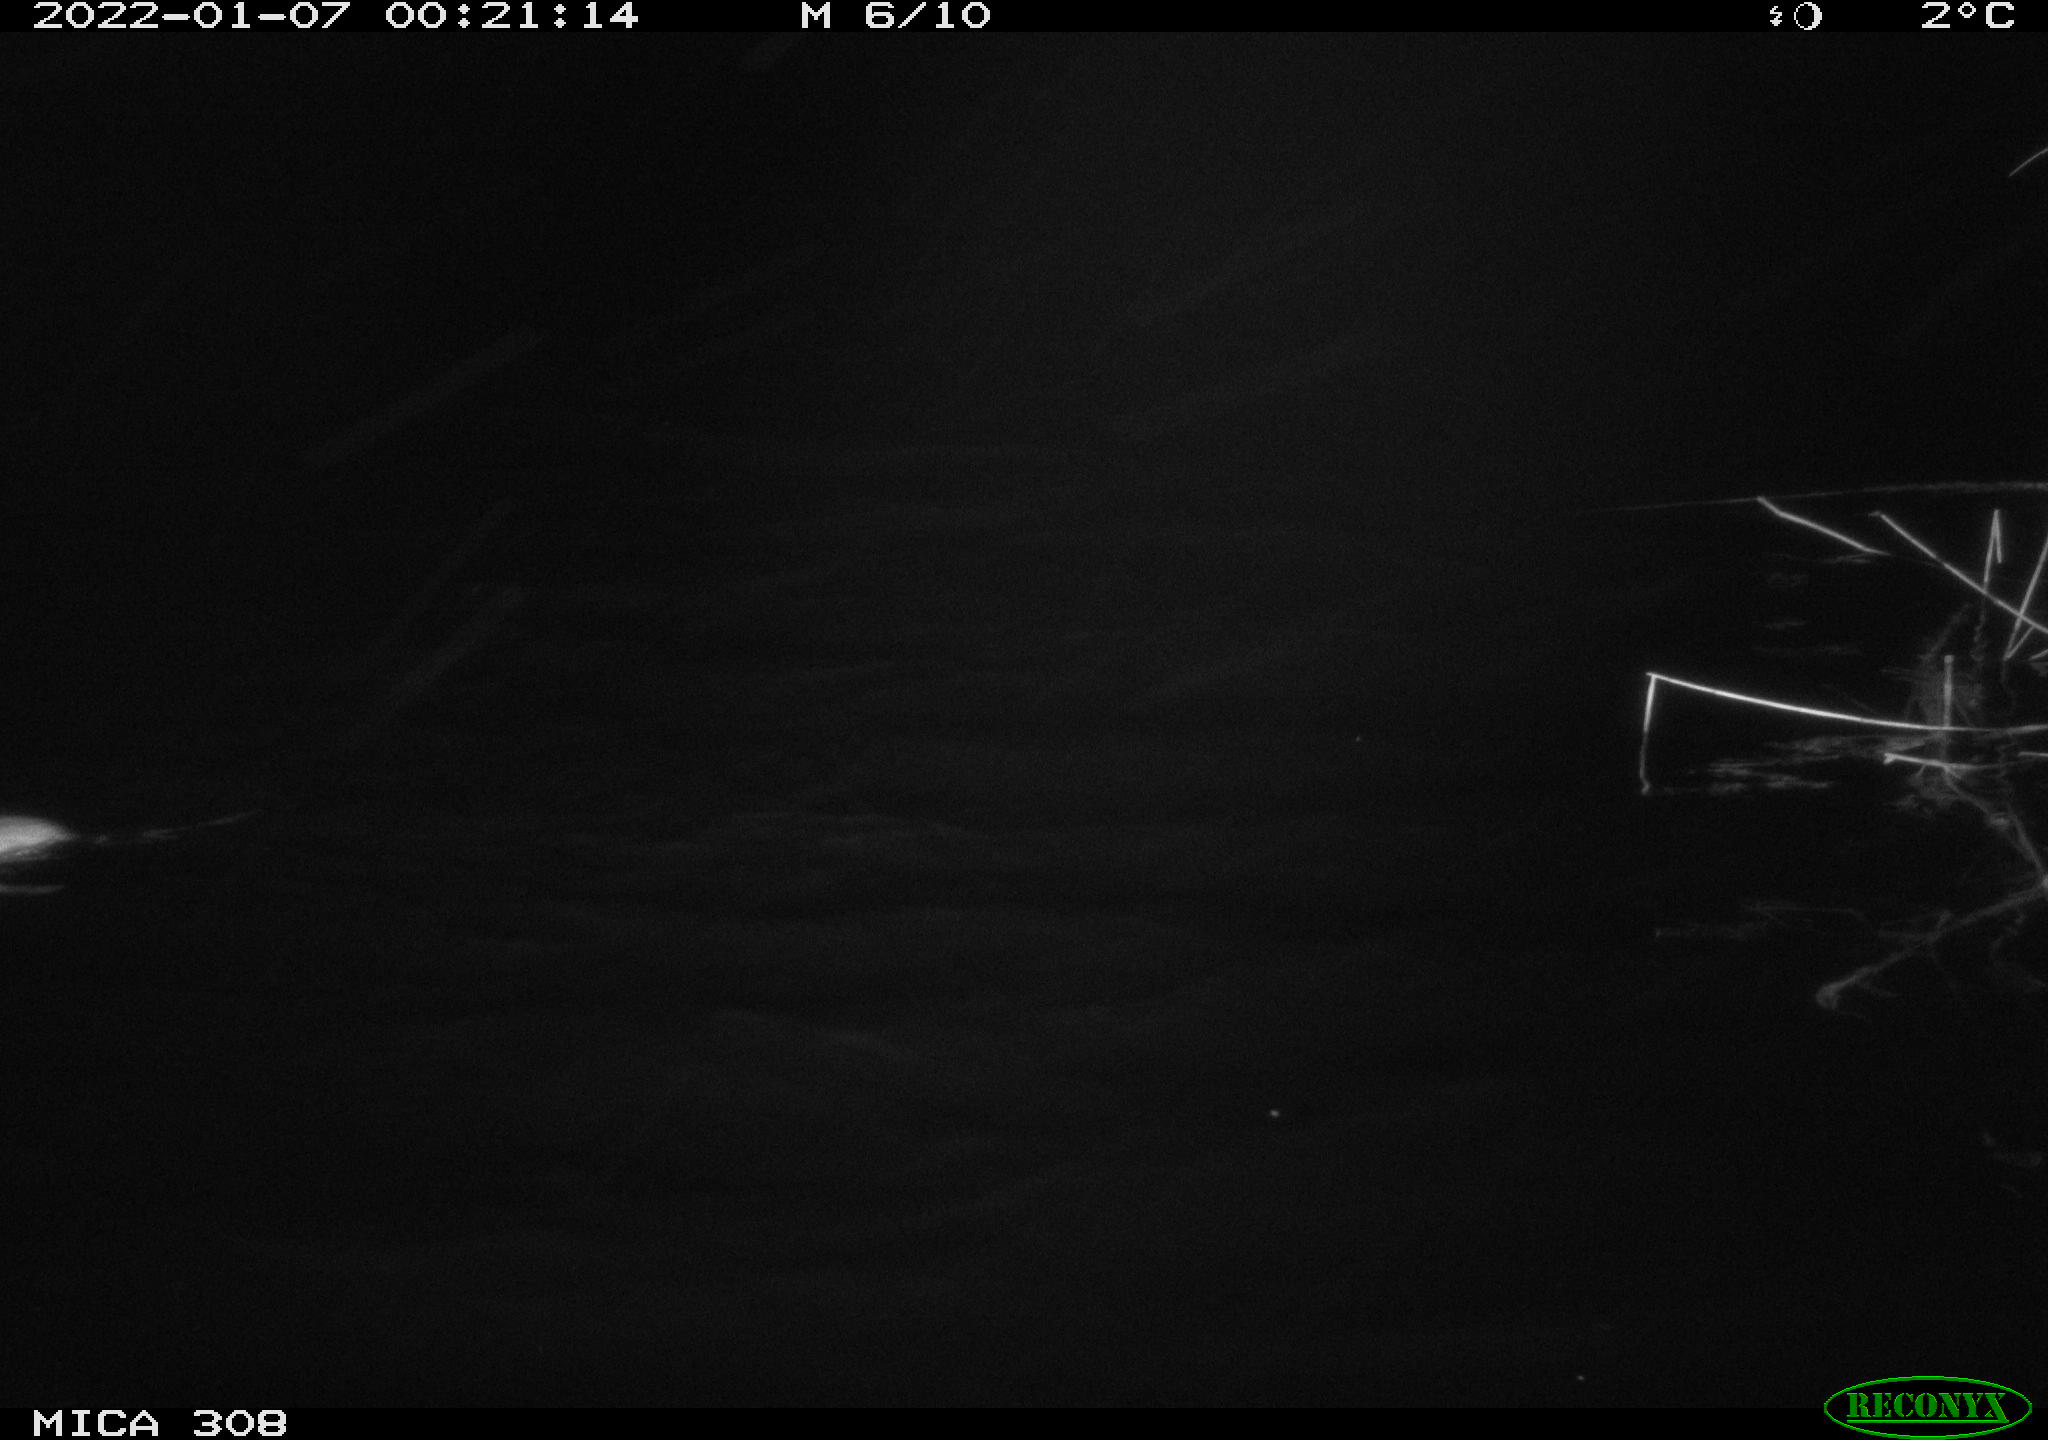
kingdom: Animalia
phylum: Chordata
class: Mammalia
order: Rodentia
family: Muridae
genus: Rattus
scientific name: Rattus norvegicus
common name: Brown rat
